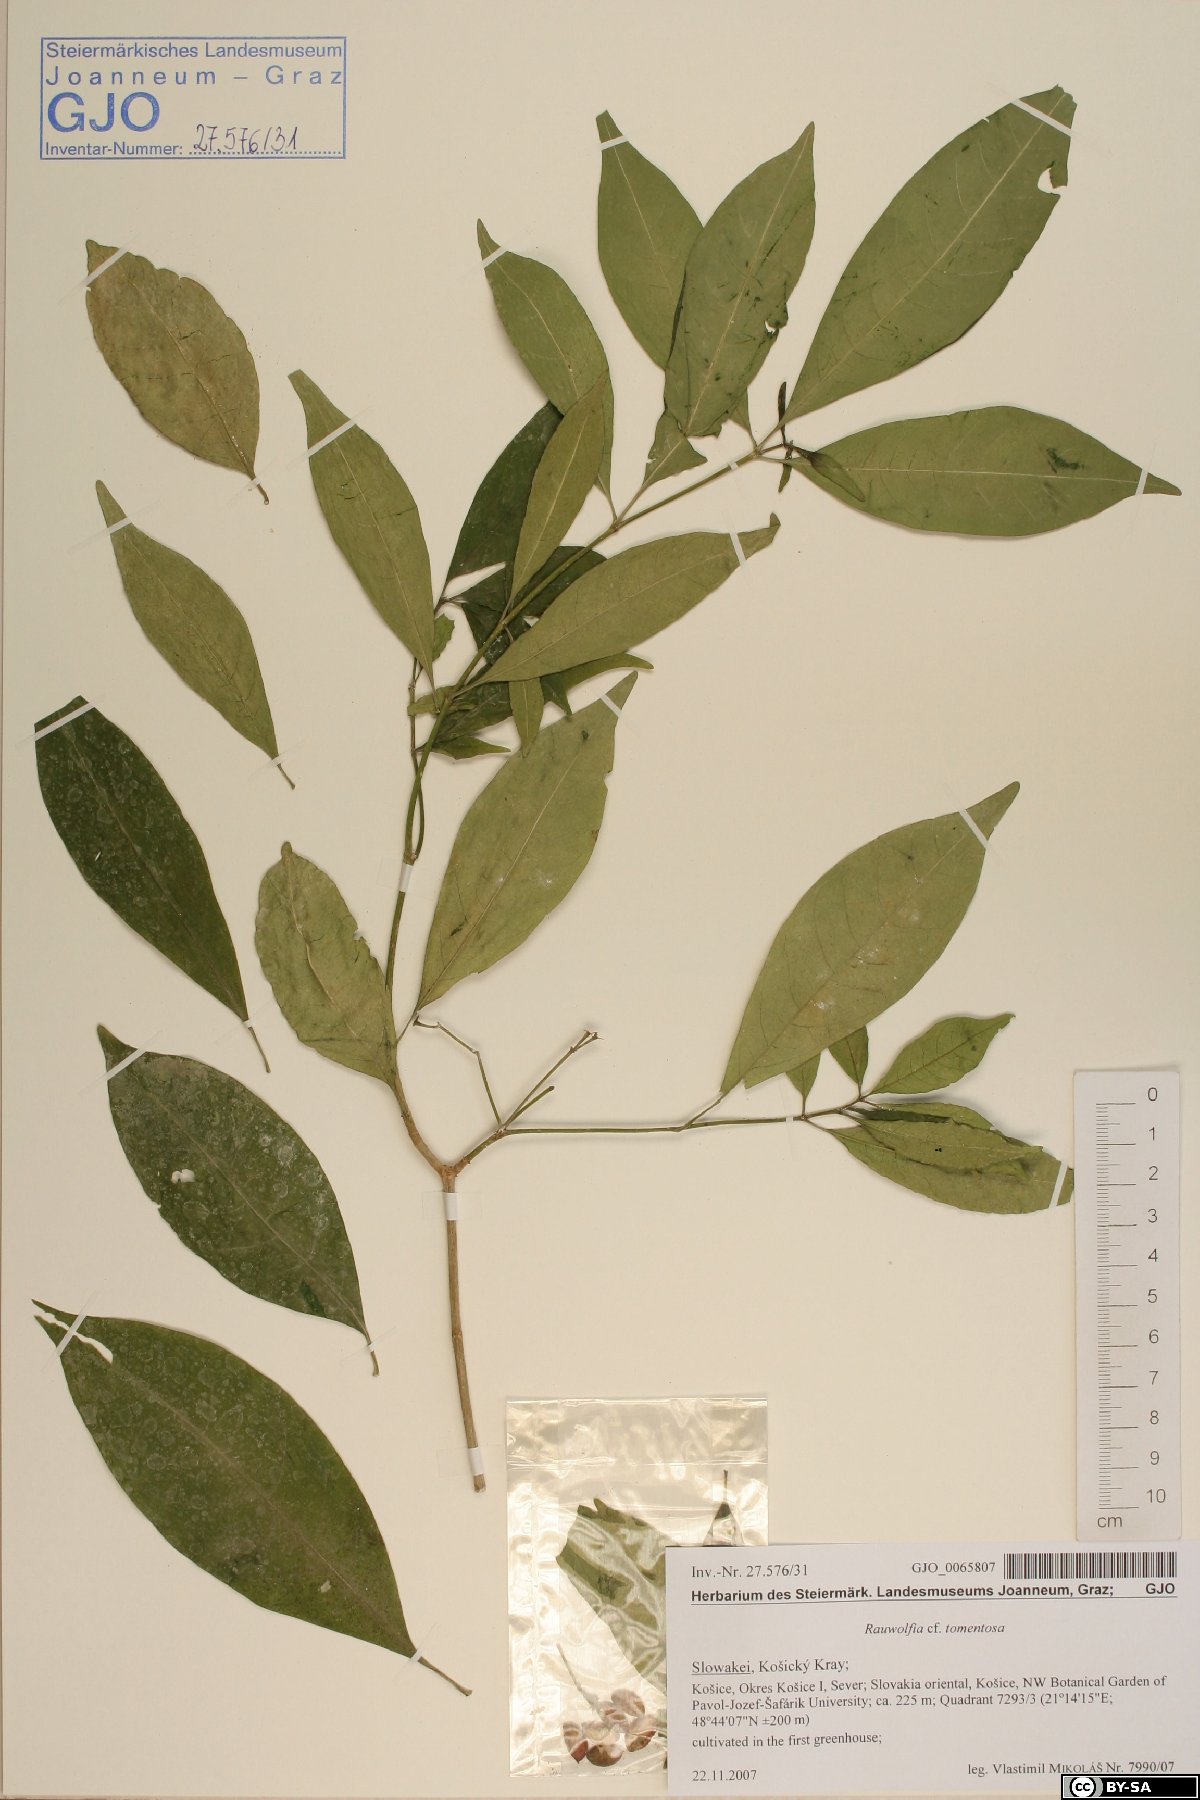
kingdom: Plantae
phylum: Tracheophyta
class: Magnoliopsida
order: Gentianales
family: Apocynaceae
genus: Rauvolfia
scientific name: Rauvolfia tetraphylla
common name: Four-leaf devil-pepper
